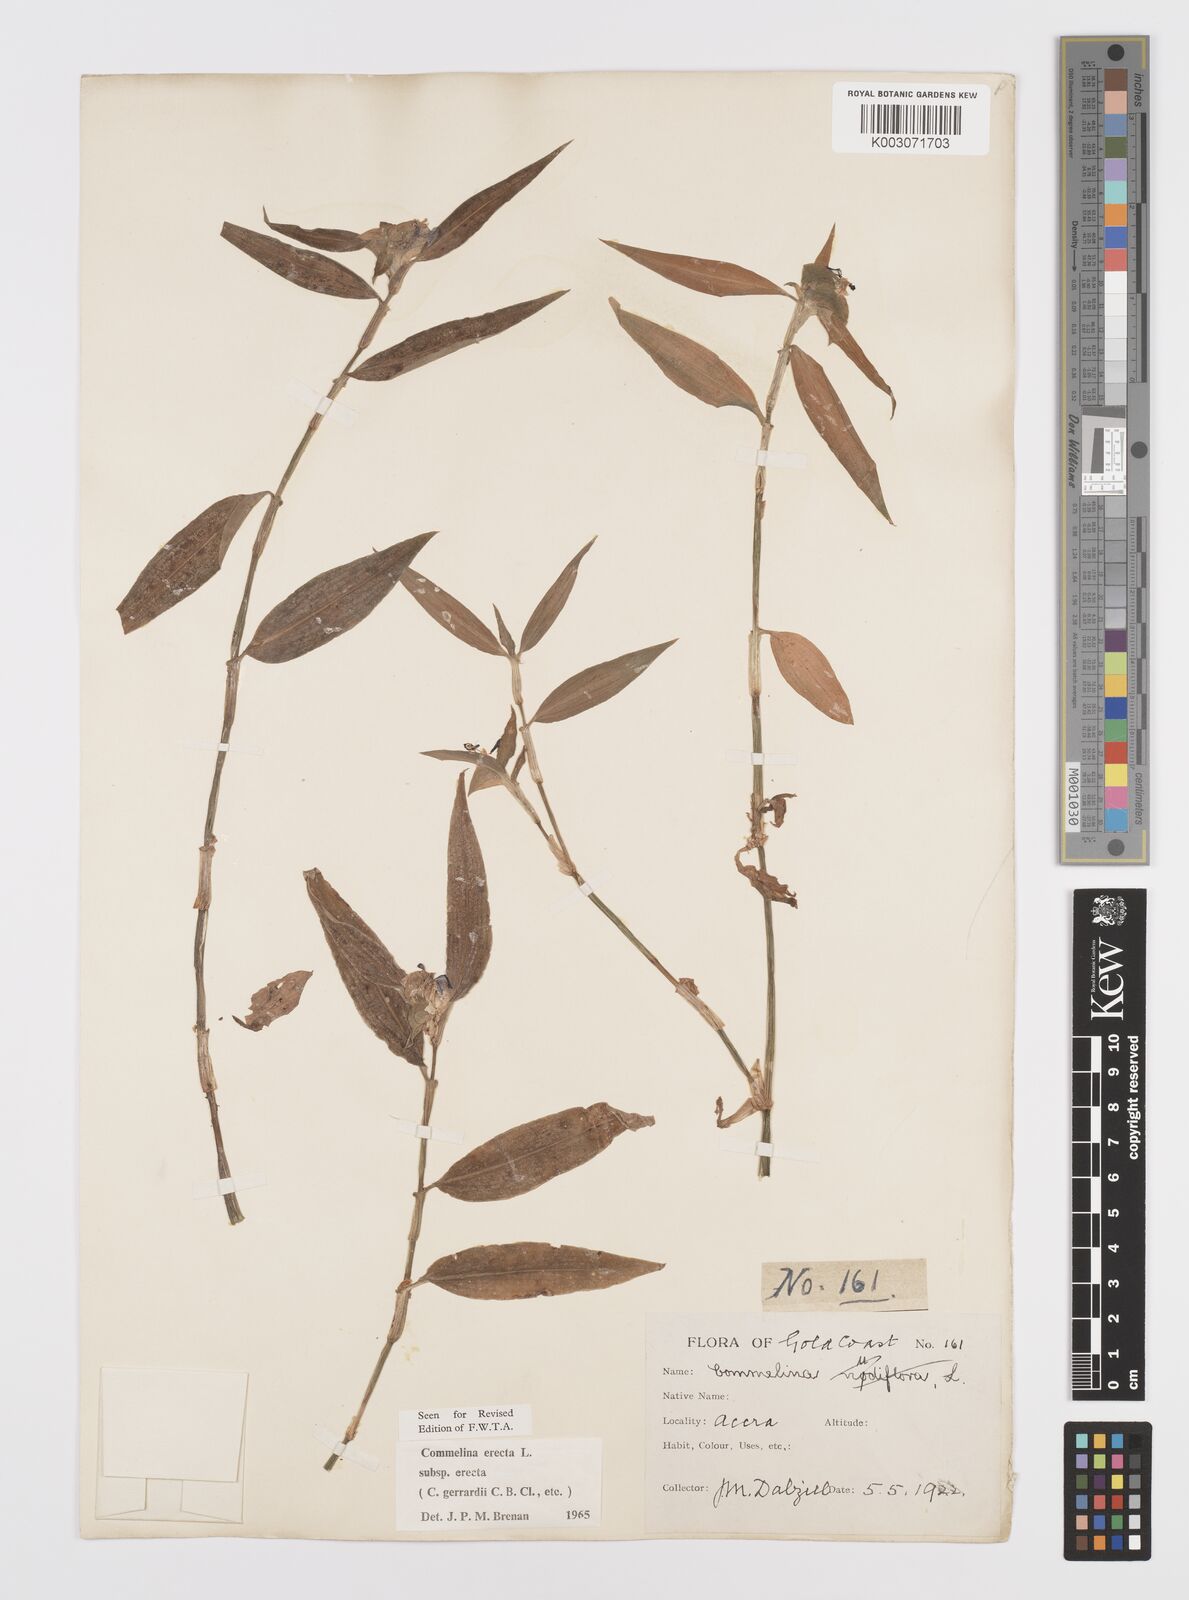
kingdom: Plantae
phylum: Tracheophyta
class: Liliopsida
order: Commelinales
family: Commelinaceae
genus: Commelina
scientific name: Commelina erecta
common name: Blousel blommetjie
